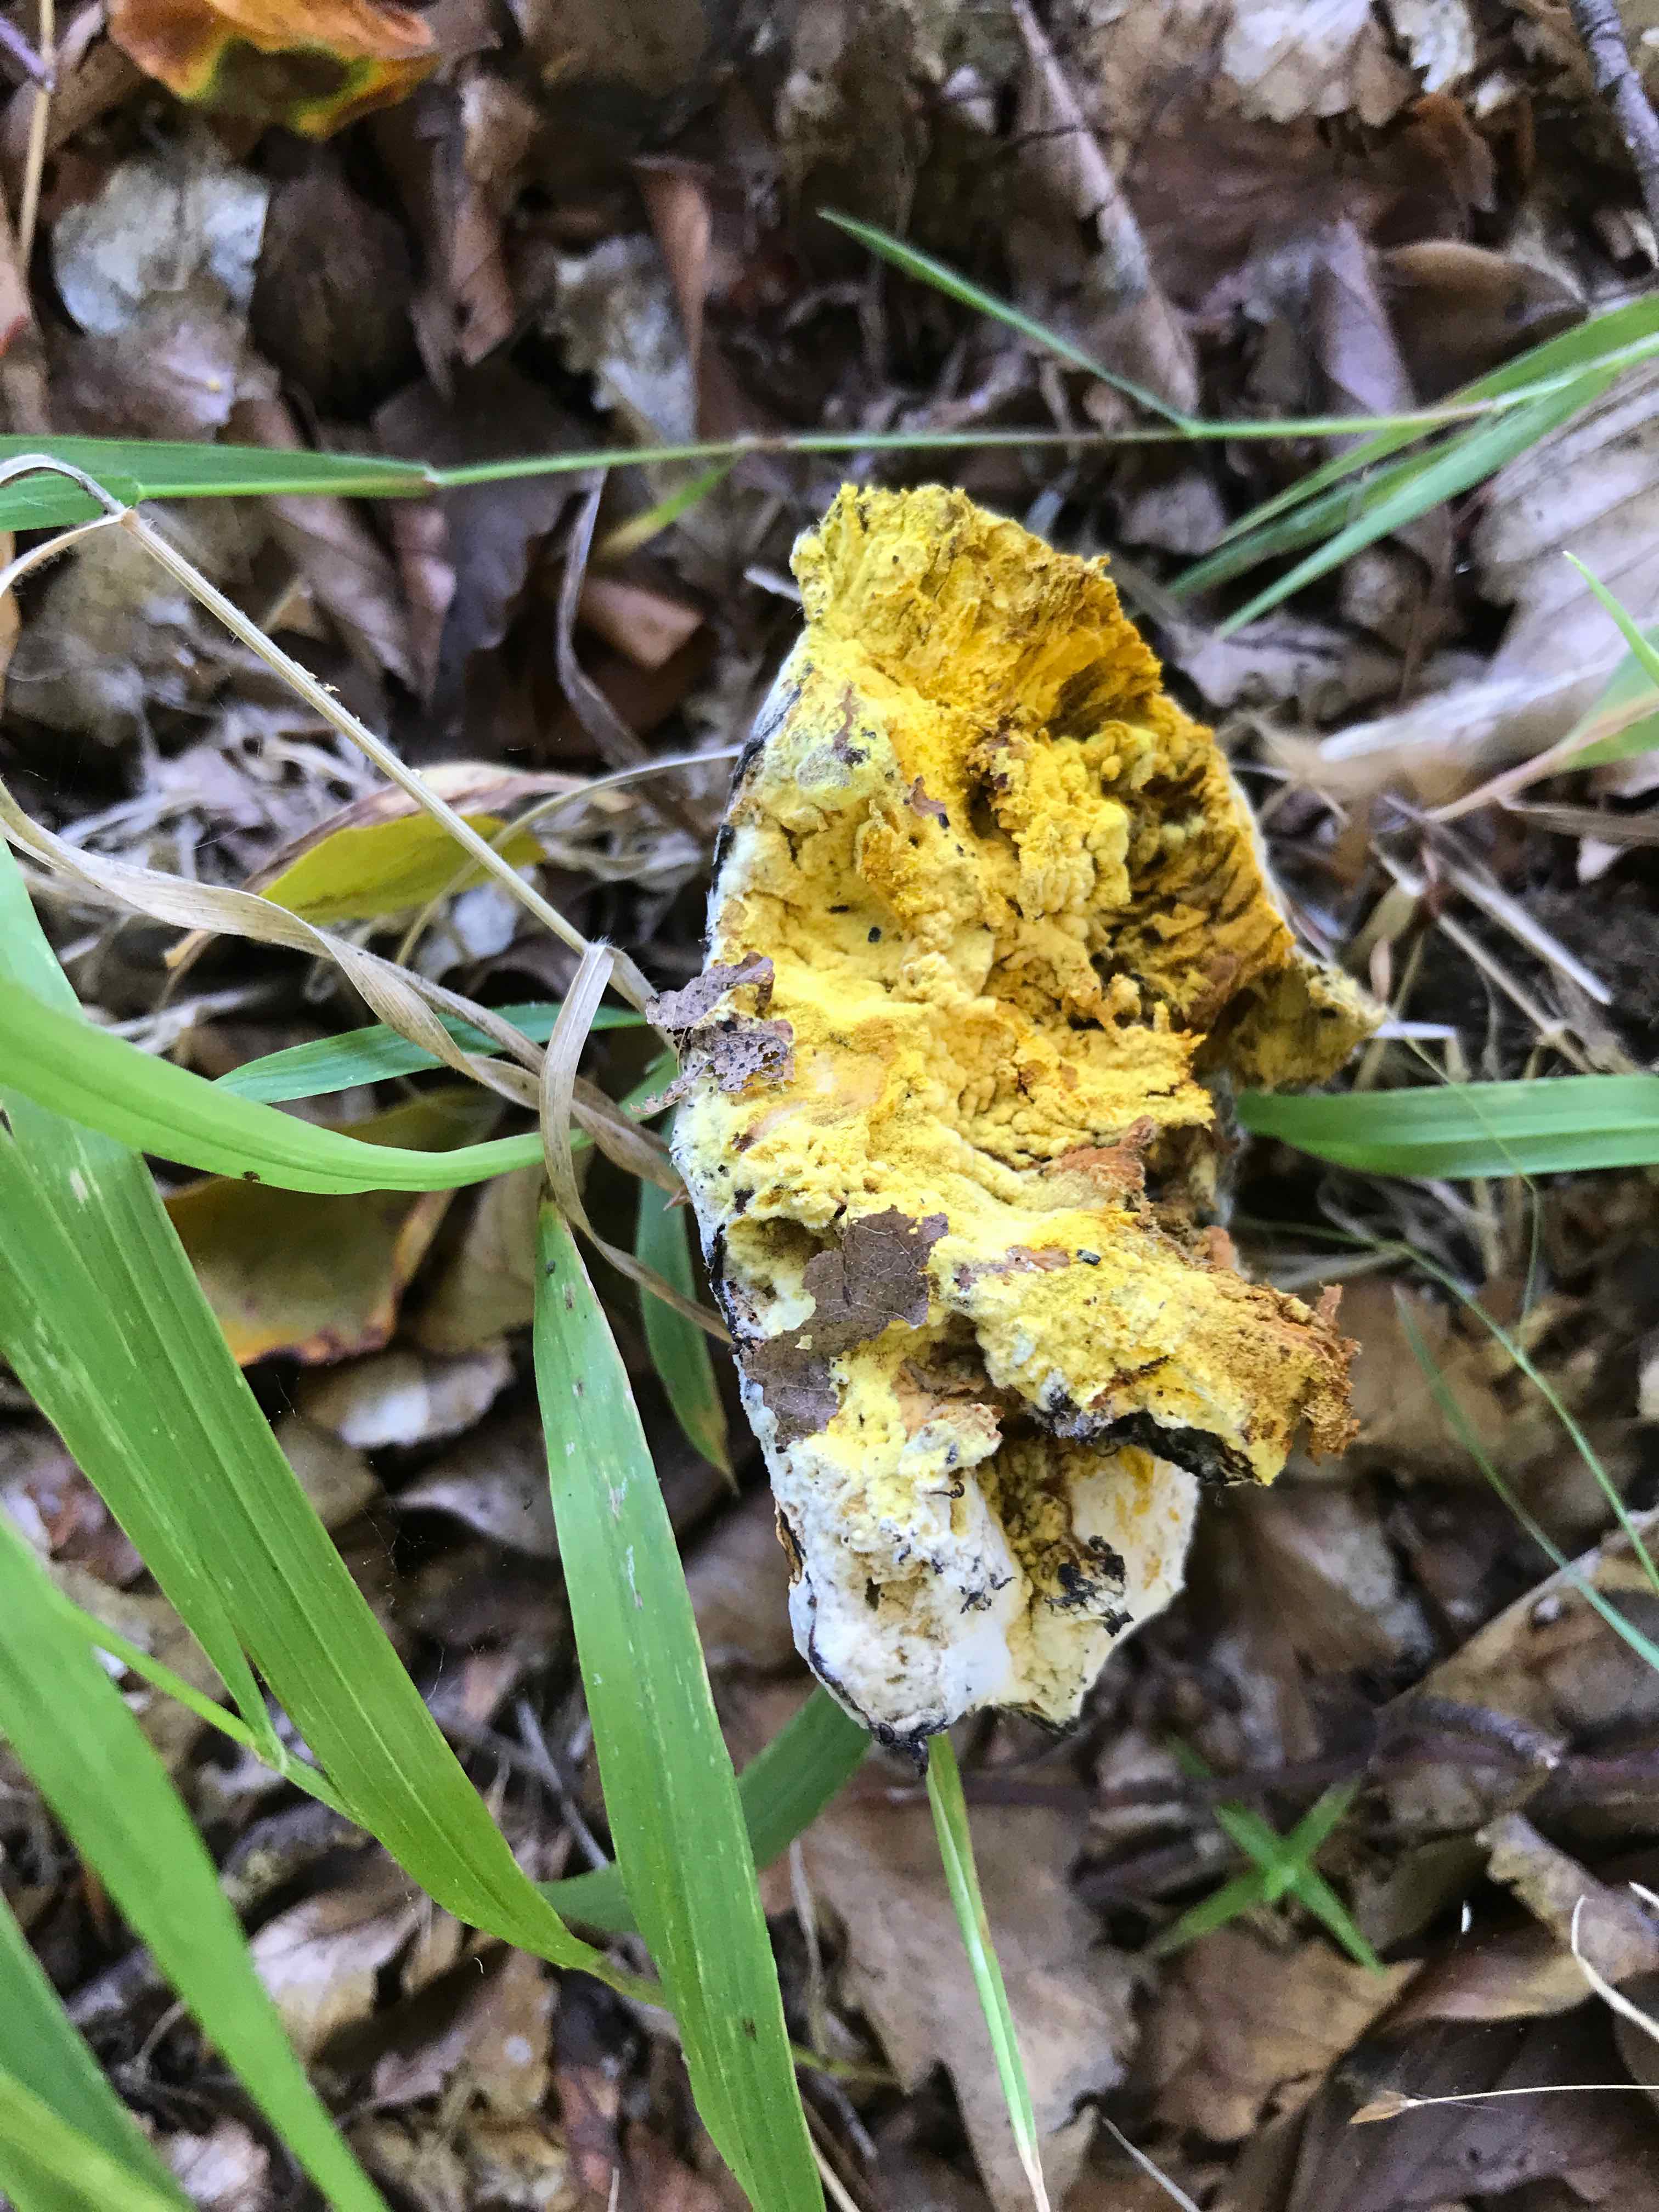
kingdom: Fungi
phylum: Ascomycota
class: Sordariomycetes
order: Hypocreales
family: Hypocreaceae
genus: Hypomyces
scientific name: Hypomyces microspermus
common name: dværgrørhat-snylteskorpe
